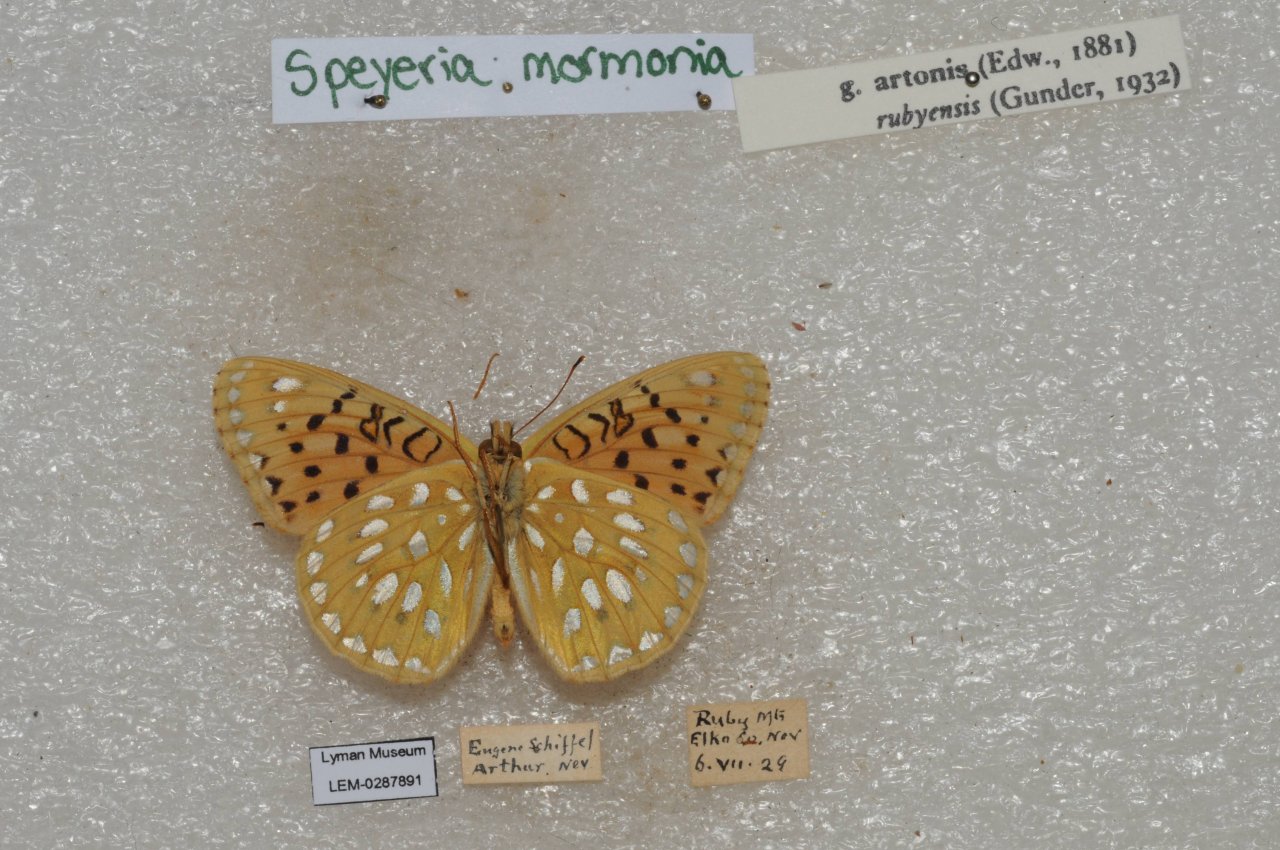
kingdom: Animalia
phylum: Arthropoda
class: Insecta
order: Lepidoptera
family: Nymphalidae
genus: Speyeria
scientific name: Speyeria mormonia
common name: Mormon Fritillary
